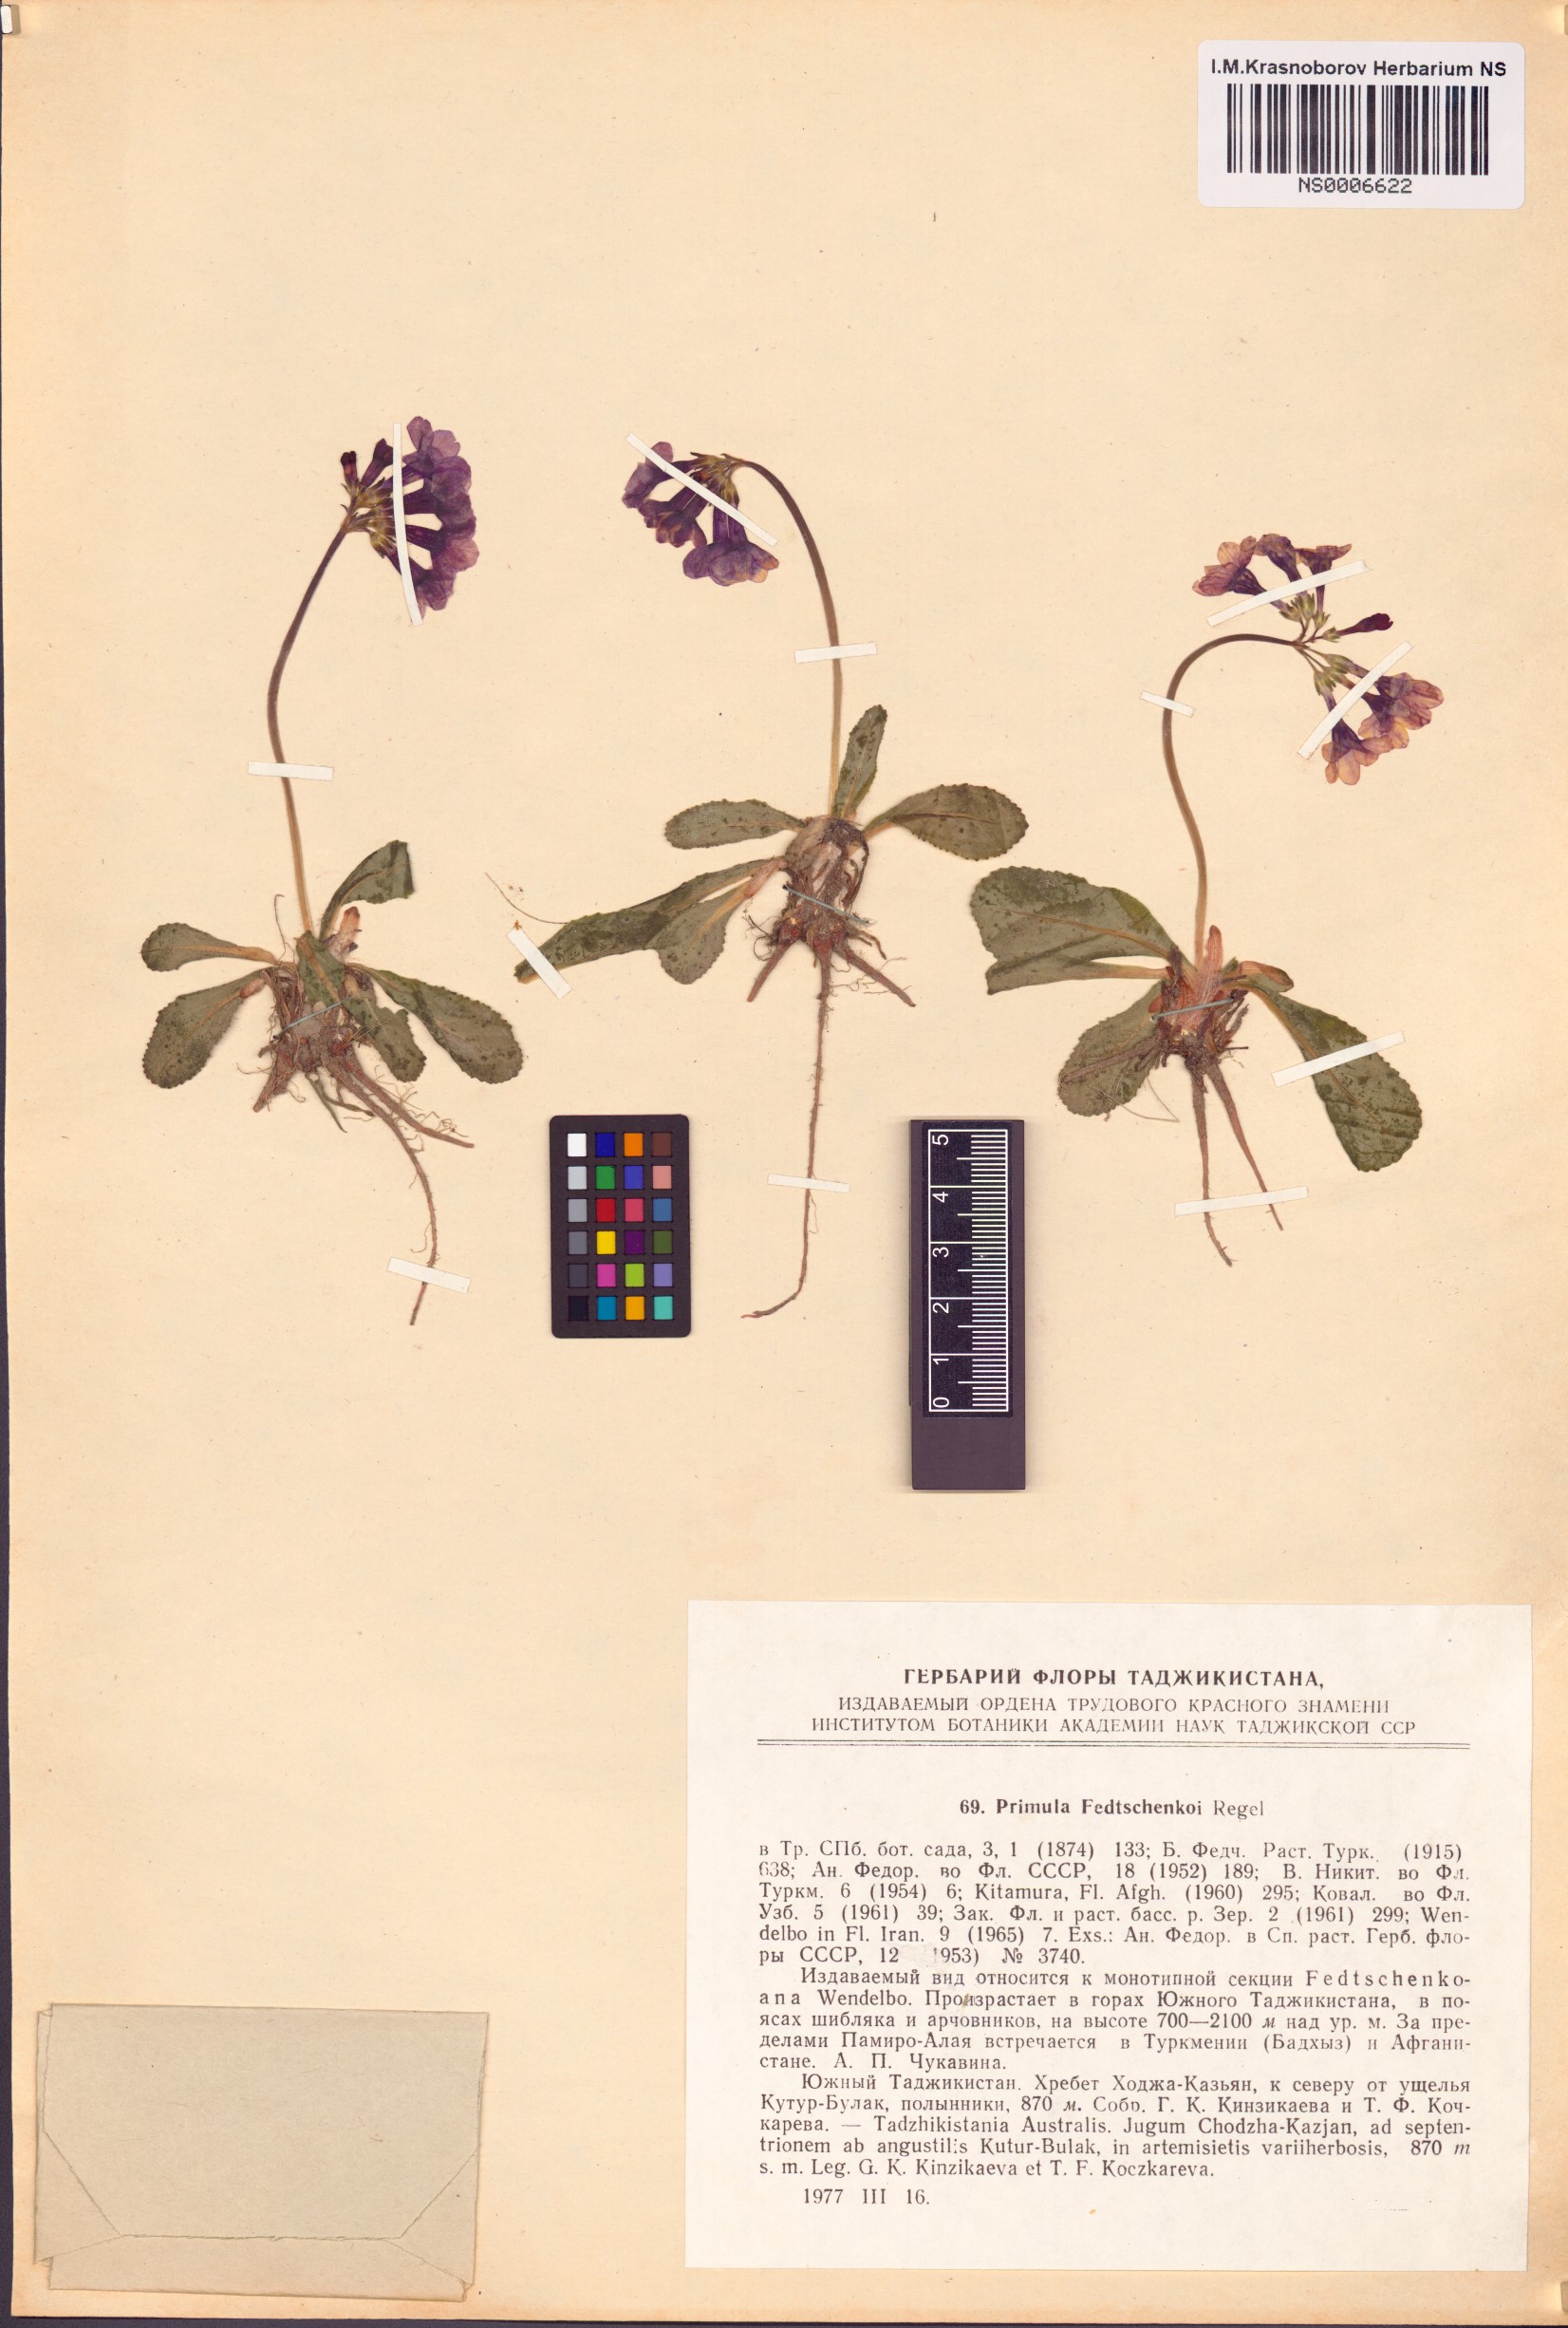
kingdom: Plantae
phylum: Tracheophyta
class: Magnoliopsida
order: Ericales
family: Primulaceae
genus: Primula
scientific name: Primula fedtschenkoi
